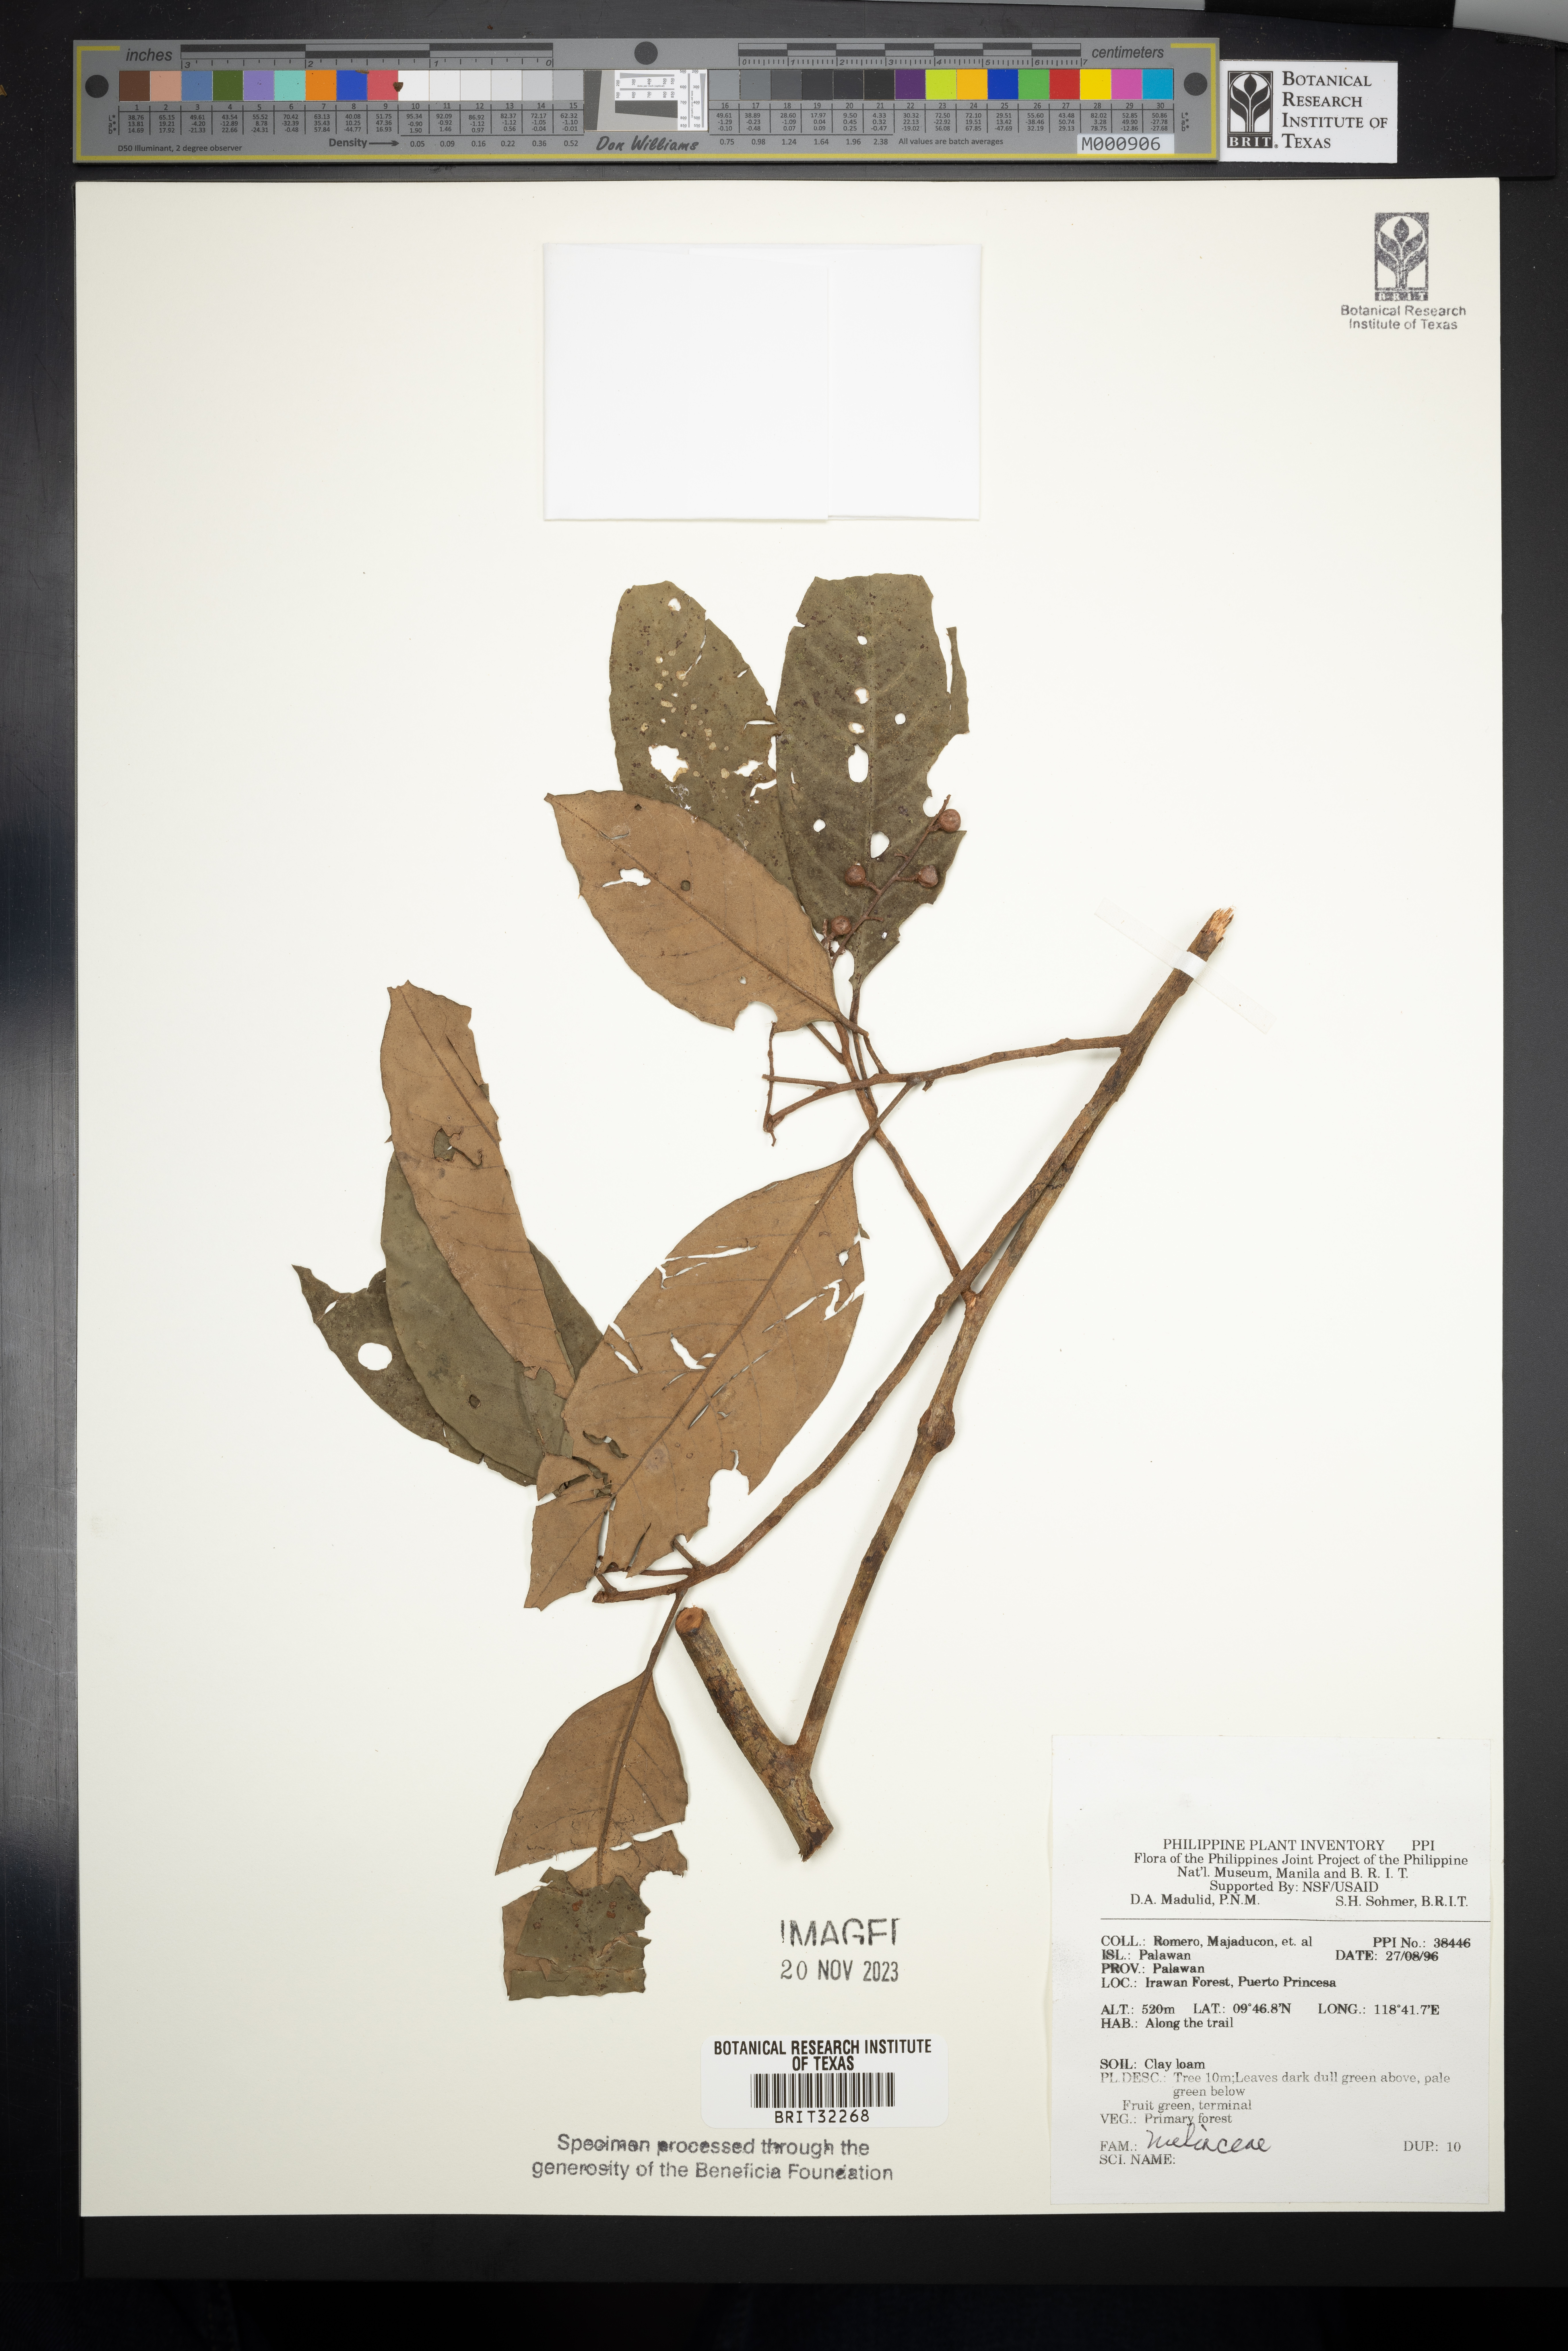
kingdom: Plantae
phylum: Tracheophyta
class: Magnoliopsida
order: Sapindales
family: Meliaceae
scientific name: Meliaceae
